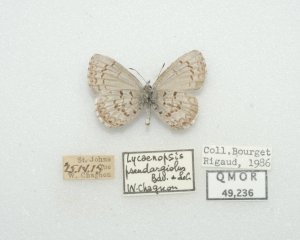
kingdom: Animalia
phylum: Arthropoda
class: Insecta
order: Lepidoptera
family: Lycaenidae
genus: Celastrina
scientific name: Celastrina lucia
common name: Northern Spring Azure
